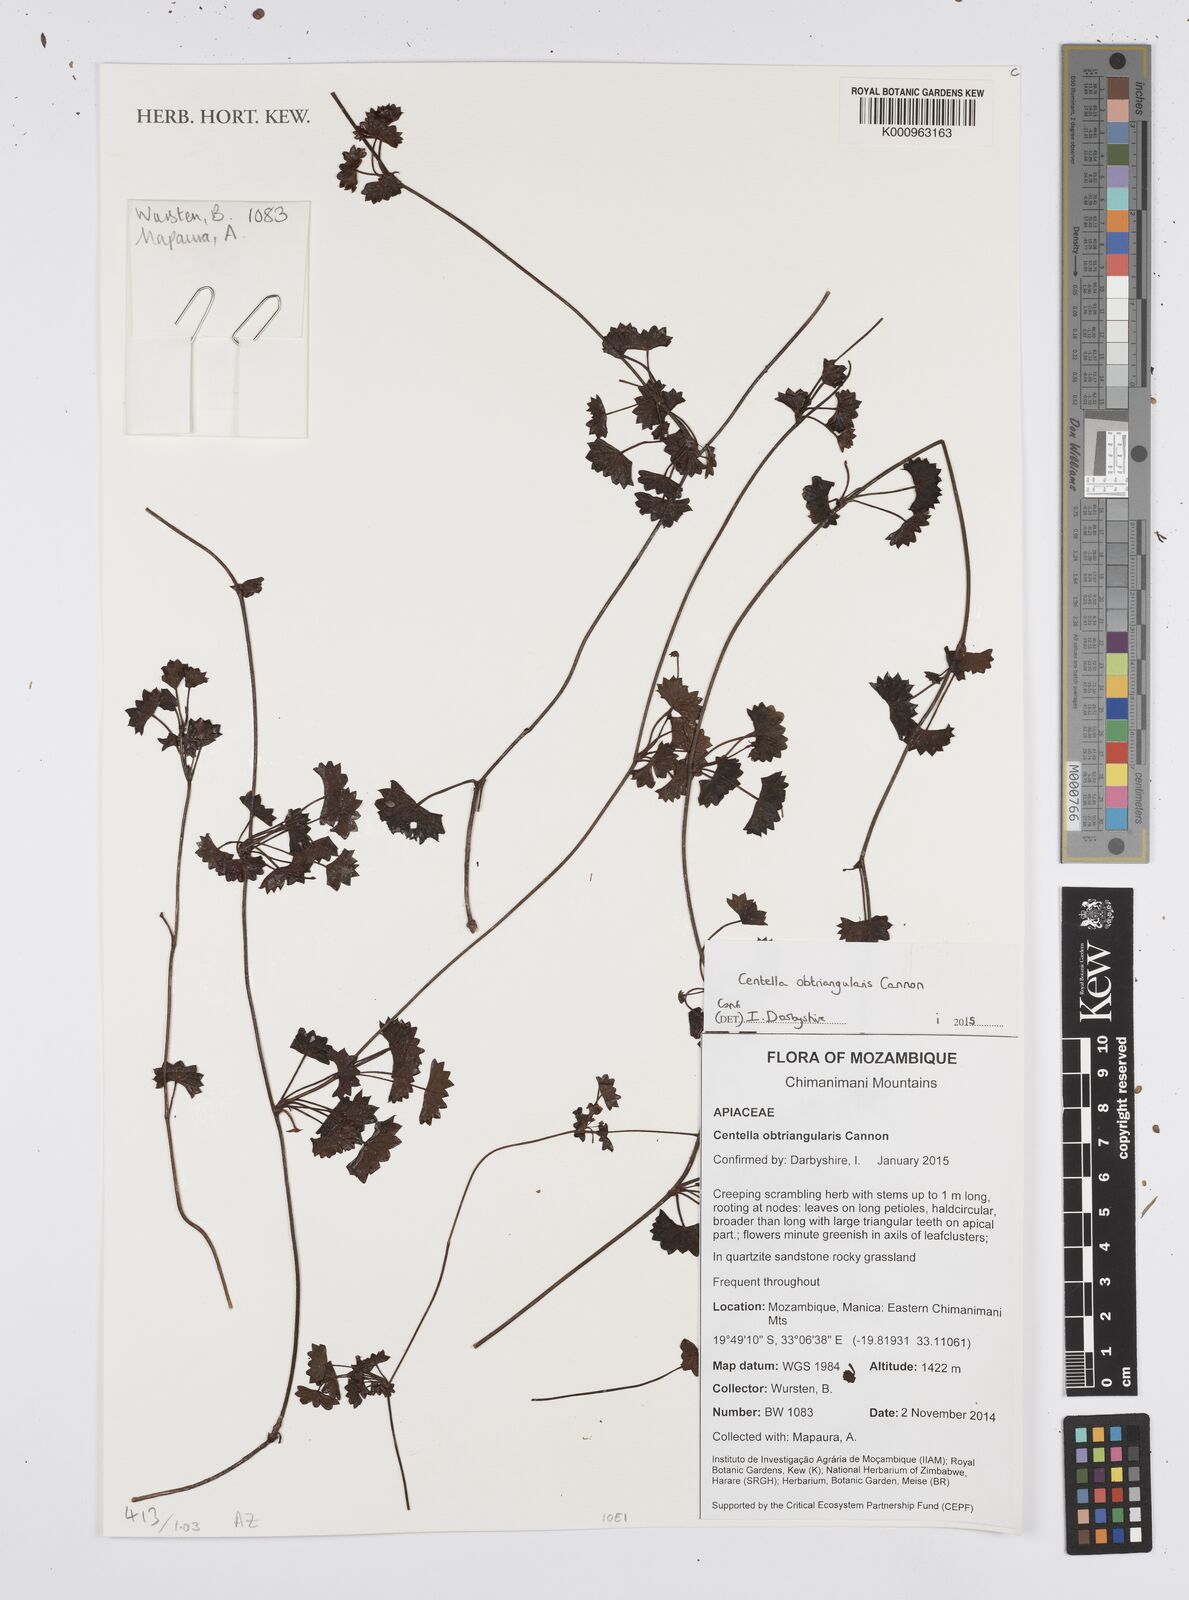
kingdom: Plantae
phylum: Tracheophyta
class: Magnoliopsida
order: Apiales
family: Apiaceae
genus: Centella
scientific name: Centella obtriangularis
